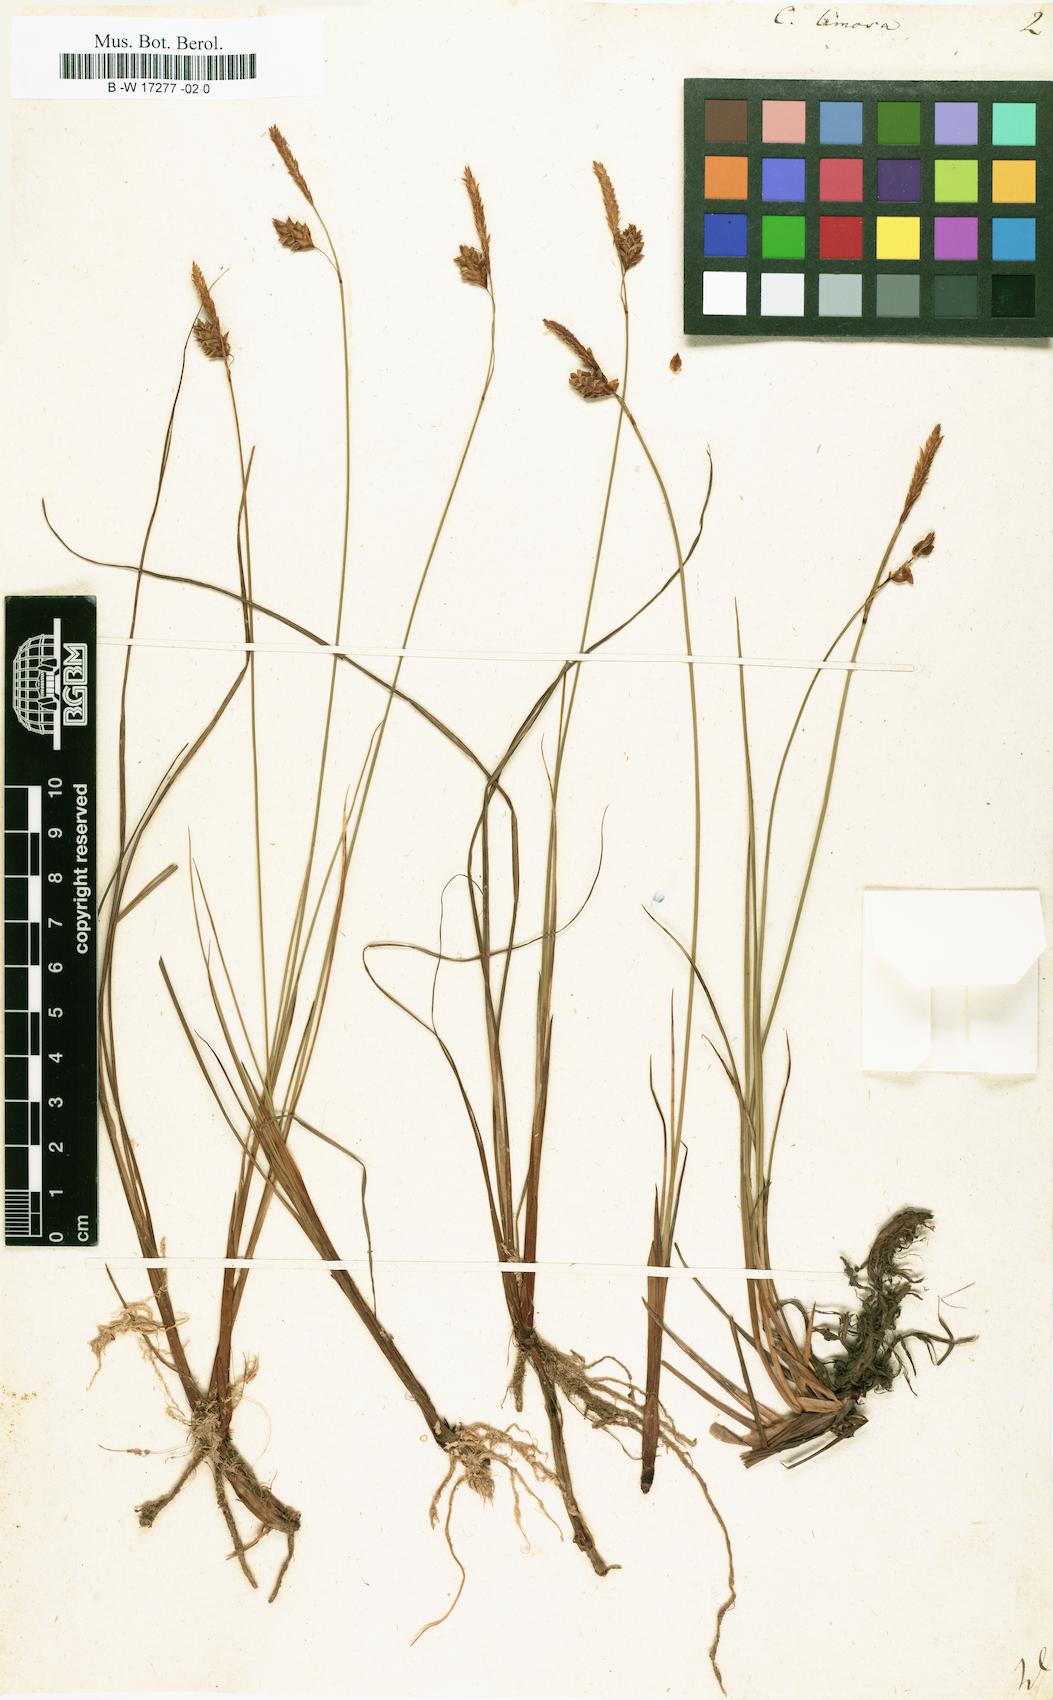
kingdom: Plantae
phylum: Tracheophyta
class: Liliopsida
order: Poales
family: Cyperaceae
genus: Carex
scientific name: Carex limosa
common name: Bog sedge
